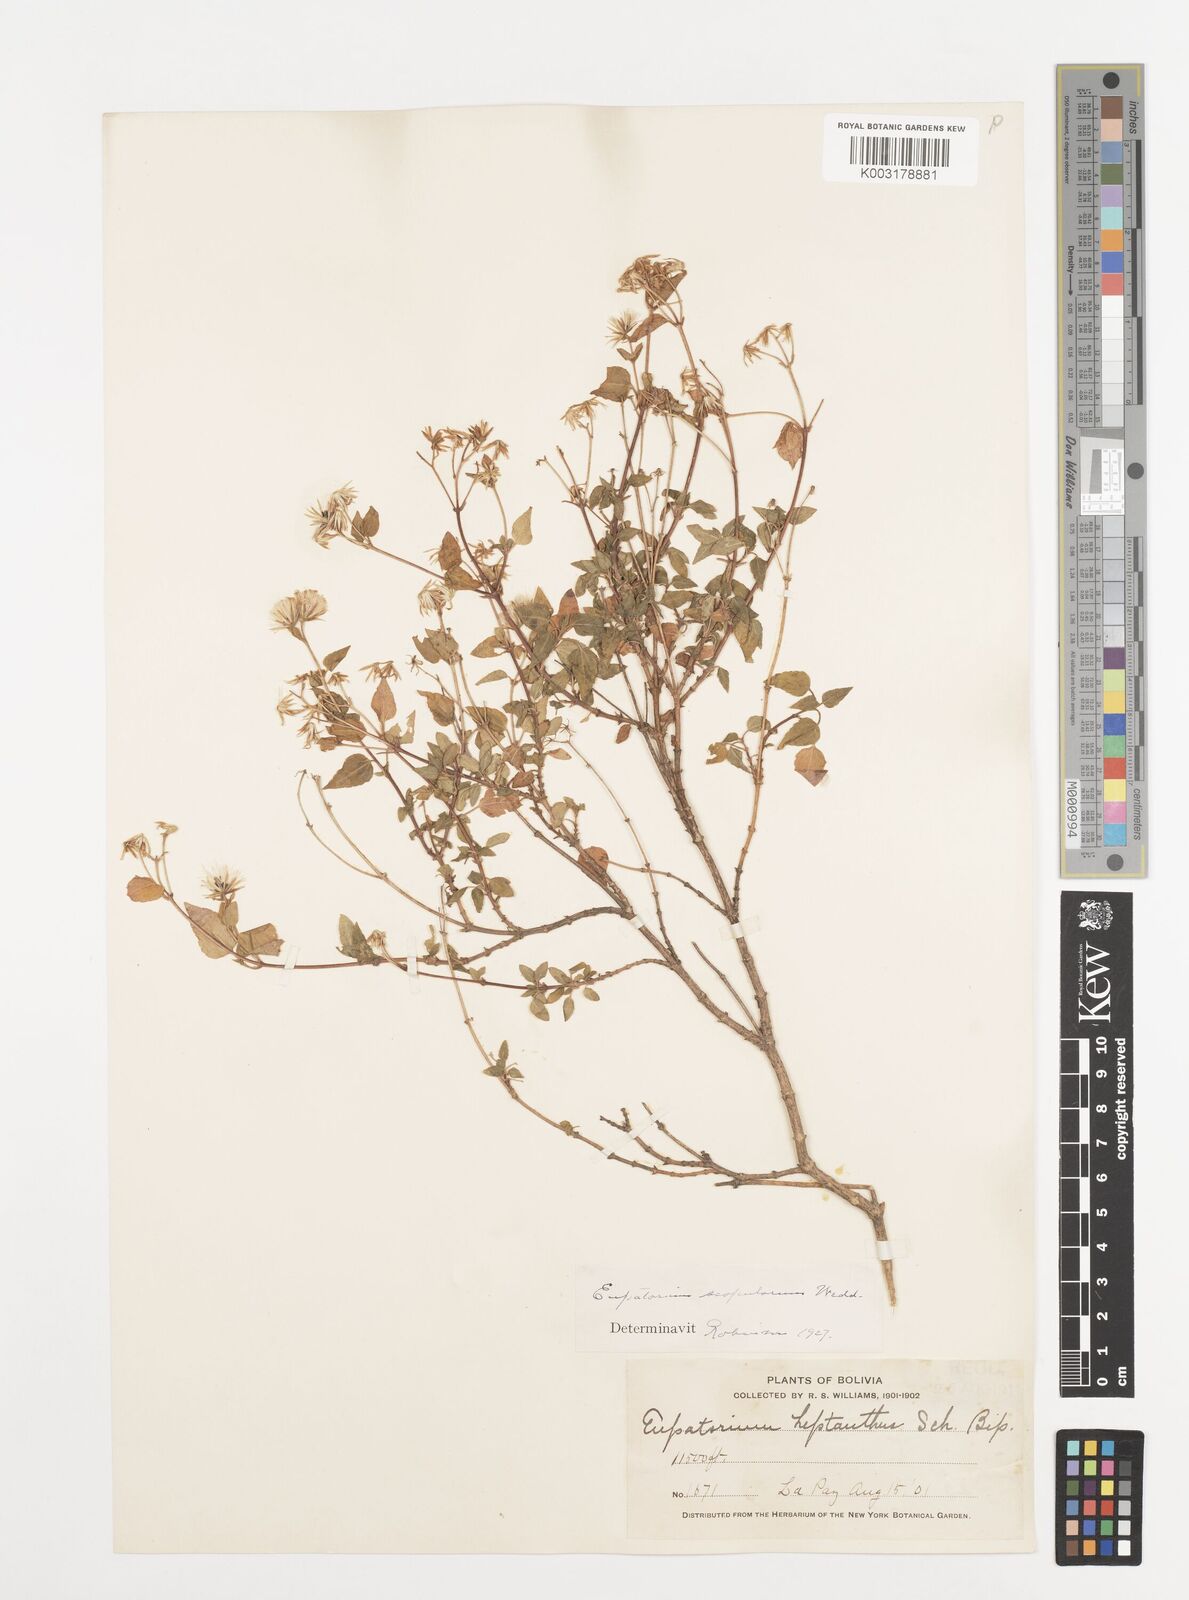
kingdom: Plantae
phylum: Tracheophyta
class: Magnoliopsida
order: Asterales
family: Asteraceae
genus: Ageratina
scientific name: Ageratina scopulorum
